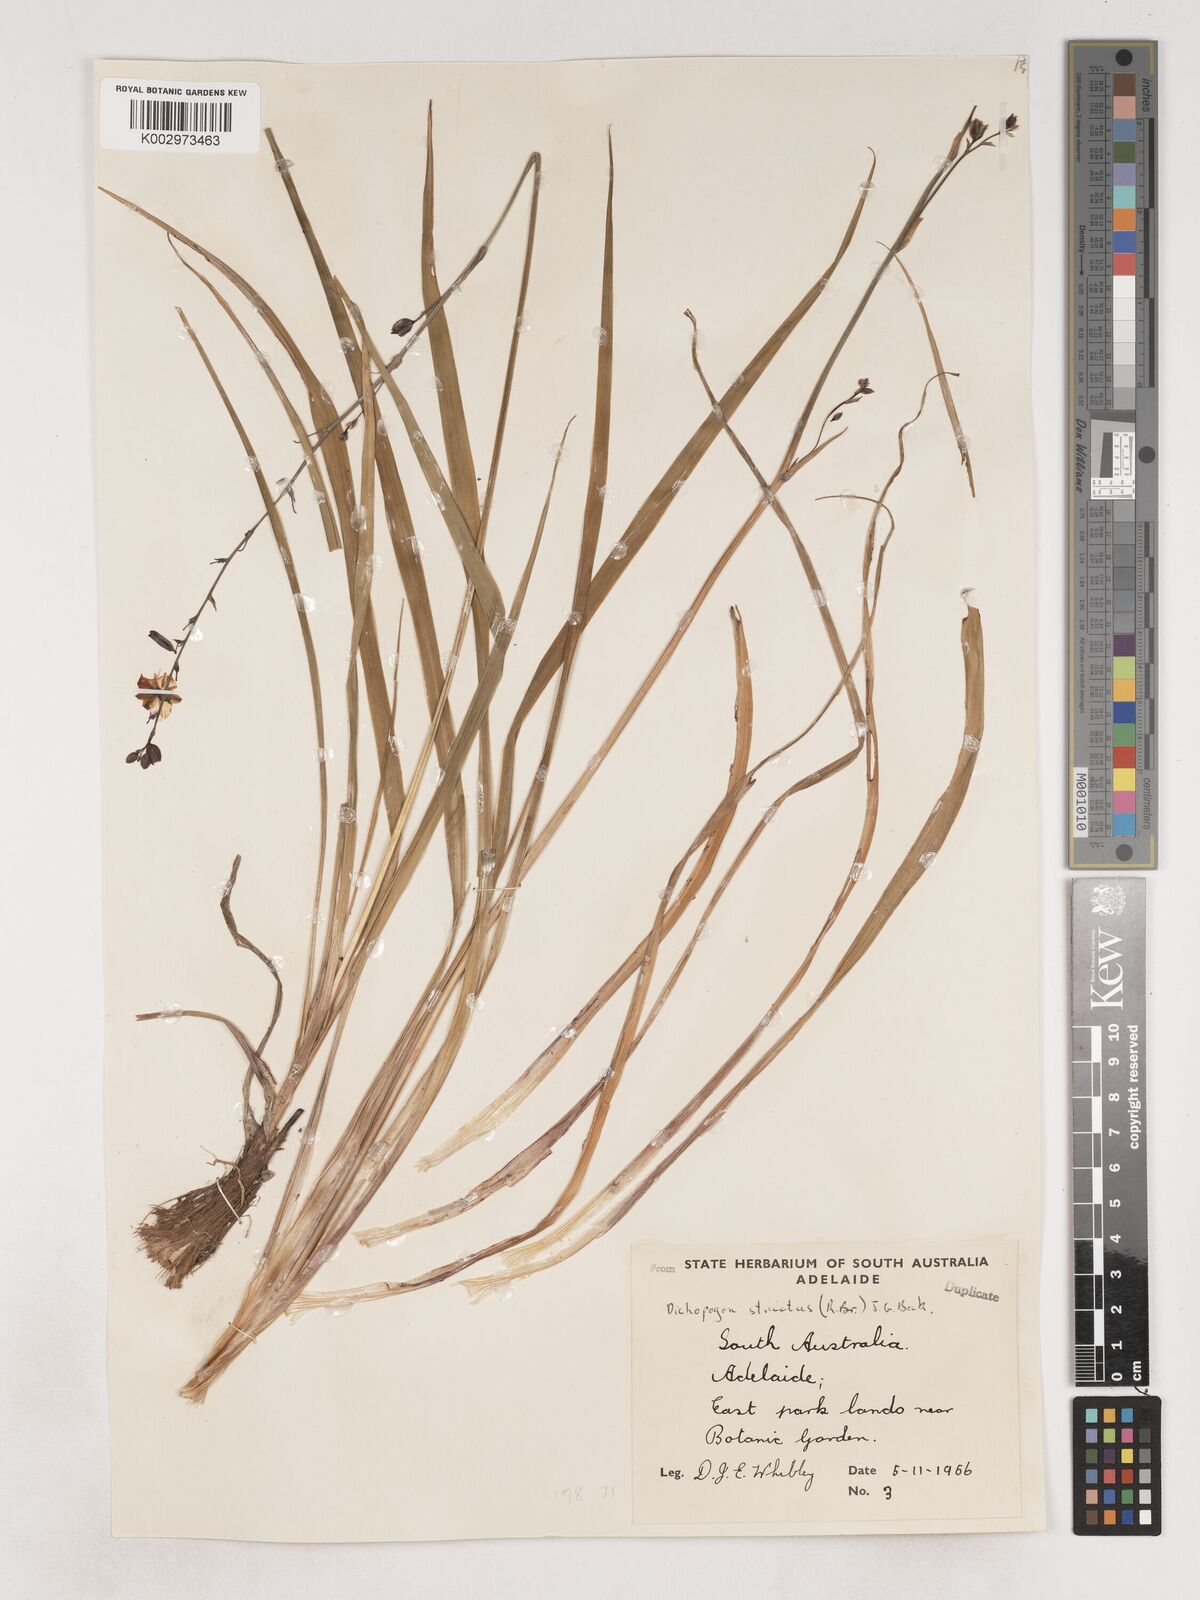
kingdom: Plantae
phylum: Tracheophyta
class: Liliopsida
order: Asparagales
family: Asparagaceae
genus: Arthropodium
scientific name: Arthropodium strictum
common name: Chocolate-lily
